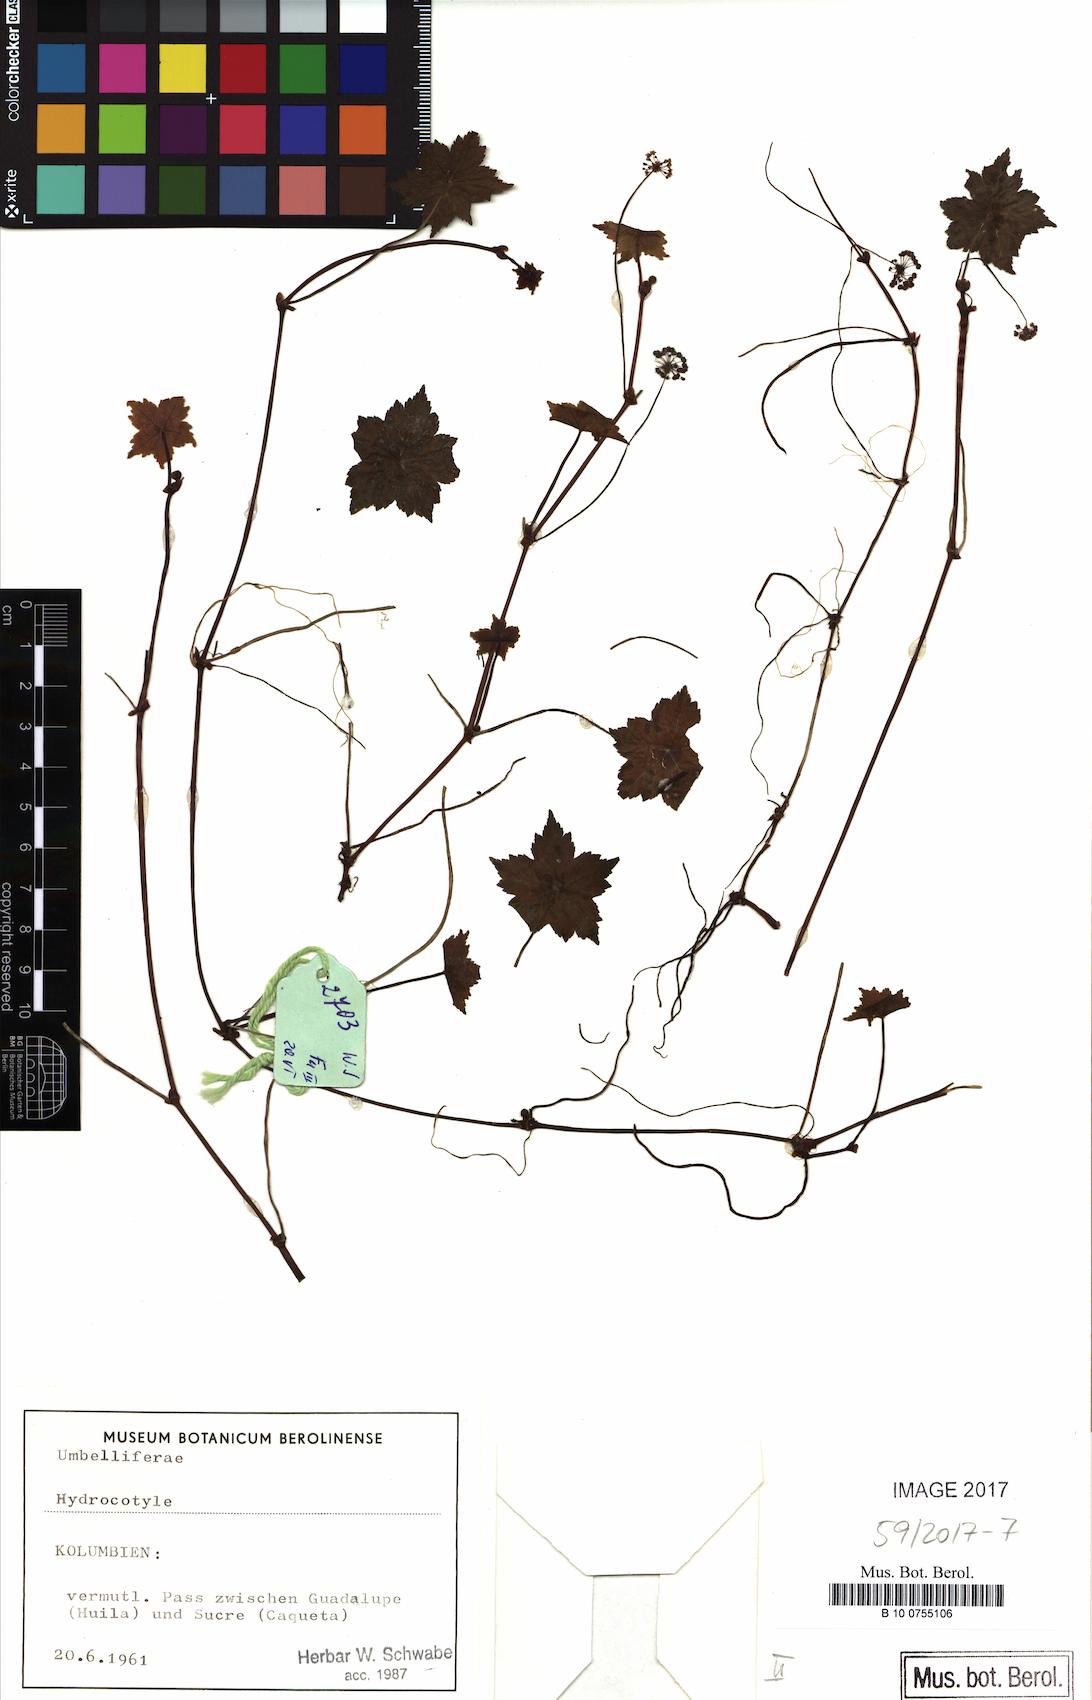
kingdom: Plantae
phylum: Tracheophyta
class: Magnoliopsida
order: Apiales
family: Araliaceae
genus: Hydrocotyle
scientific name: Hydrocotyle
